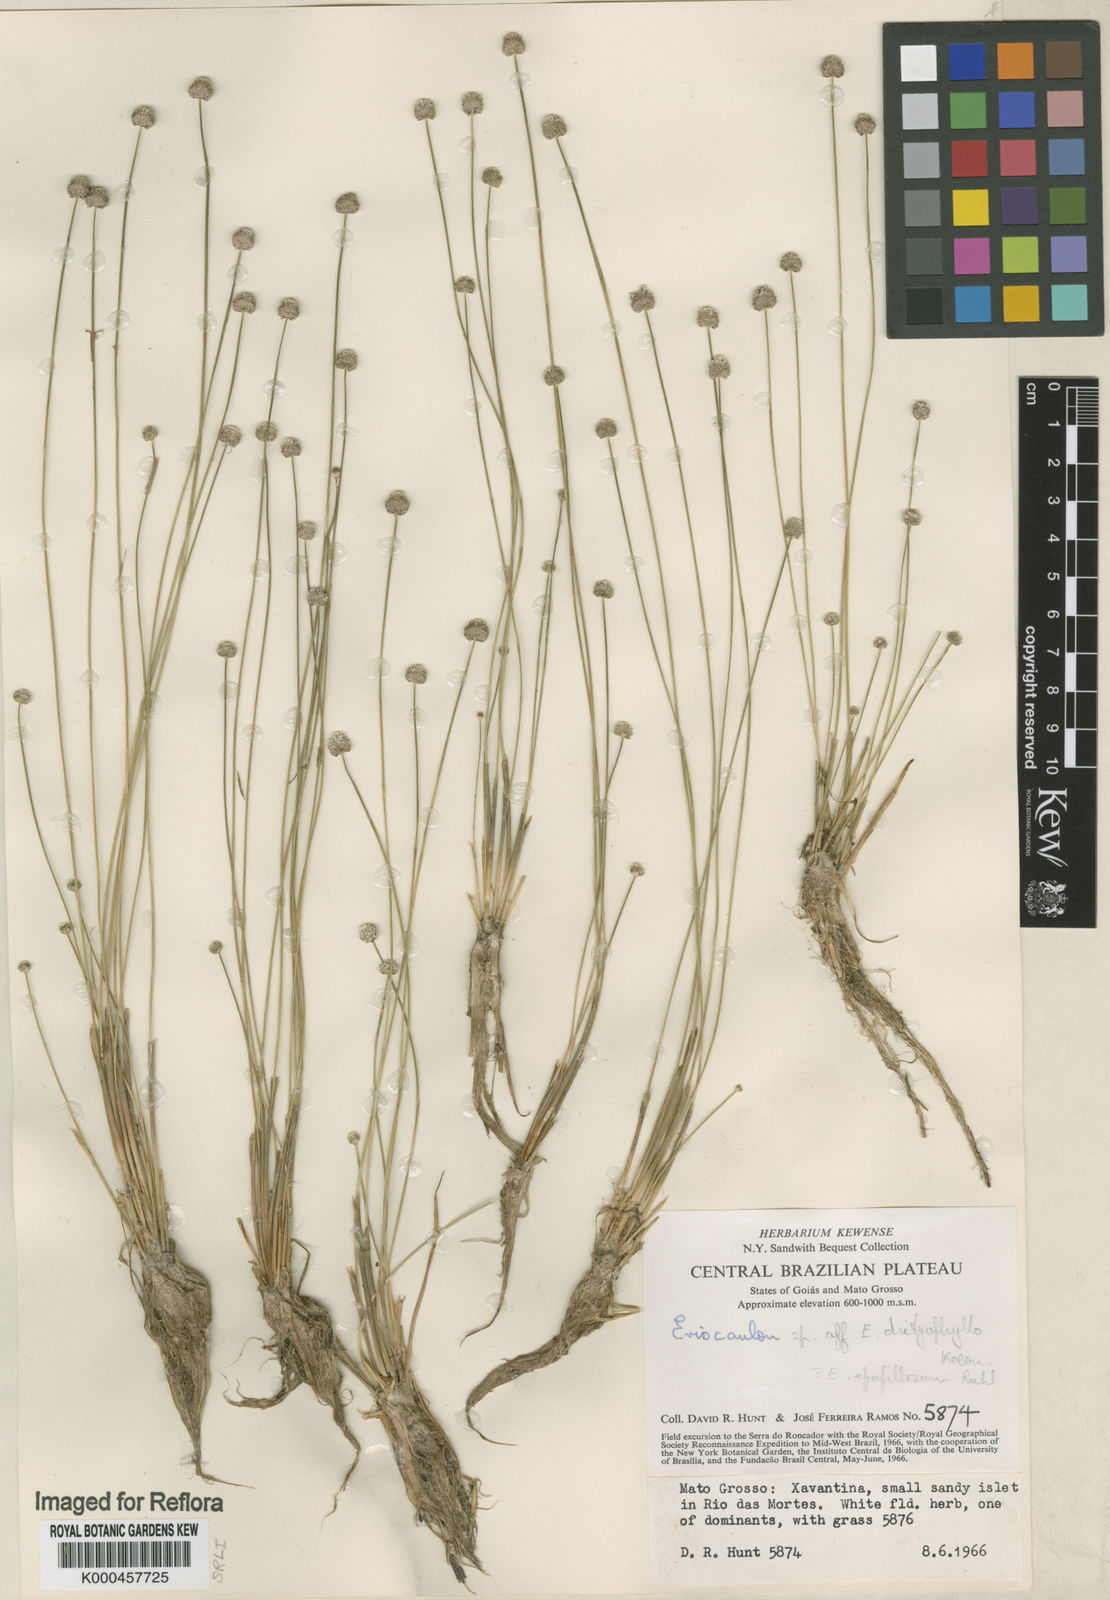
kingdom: Plantae
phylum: Tracheophyta
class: Liliopsida
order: Poales
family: Eriocaulaceae
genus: Eriocaulon
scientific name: Eriocaulon
